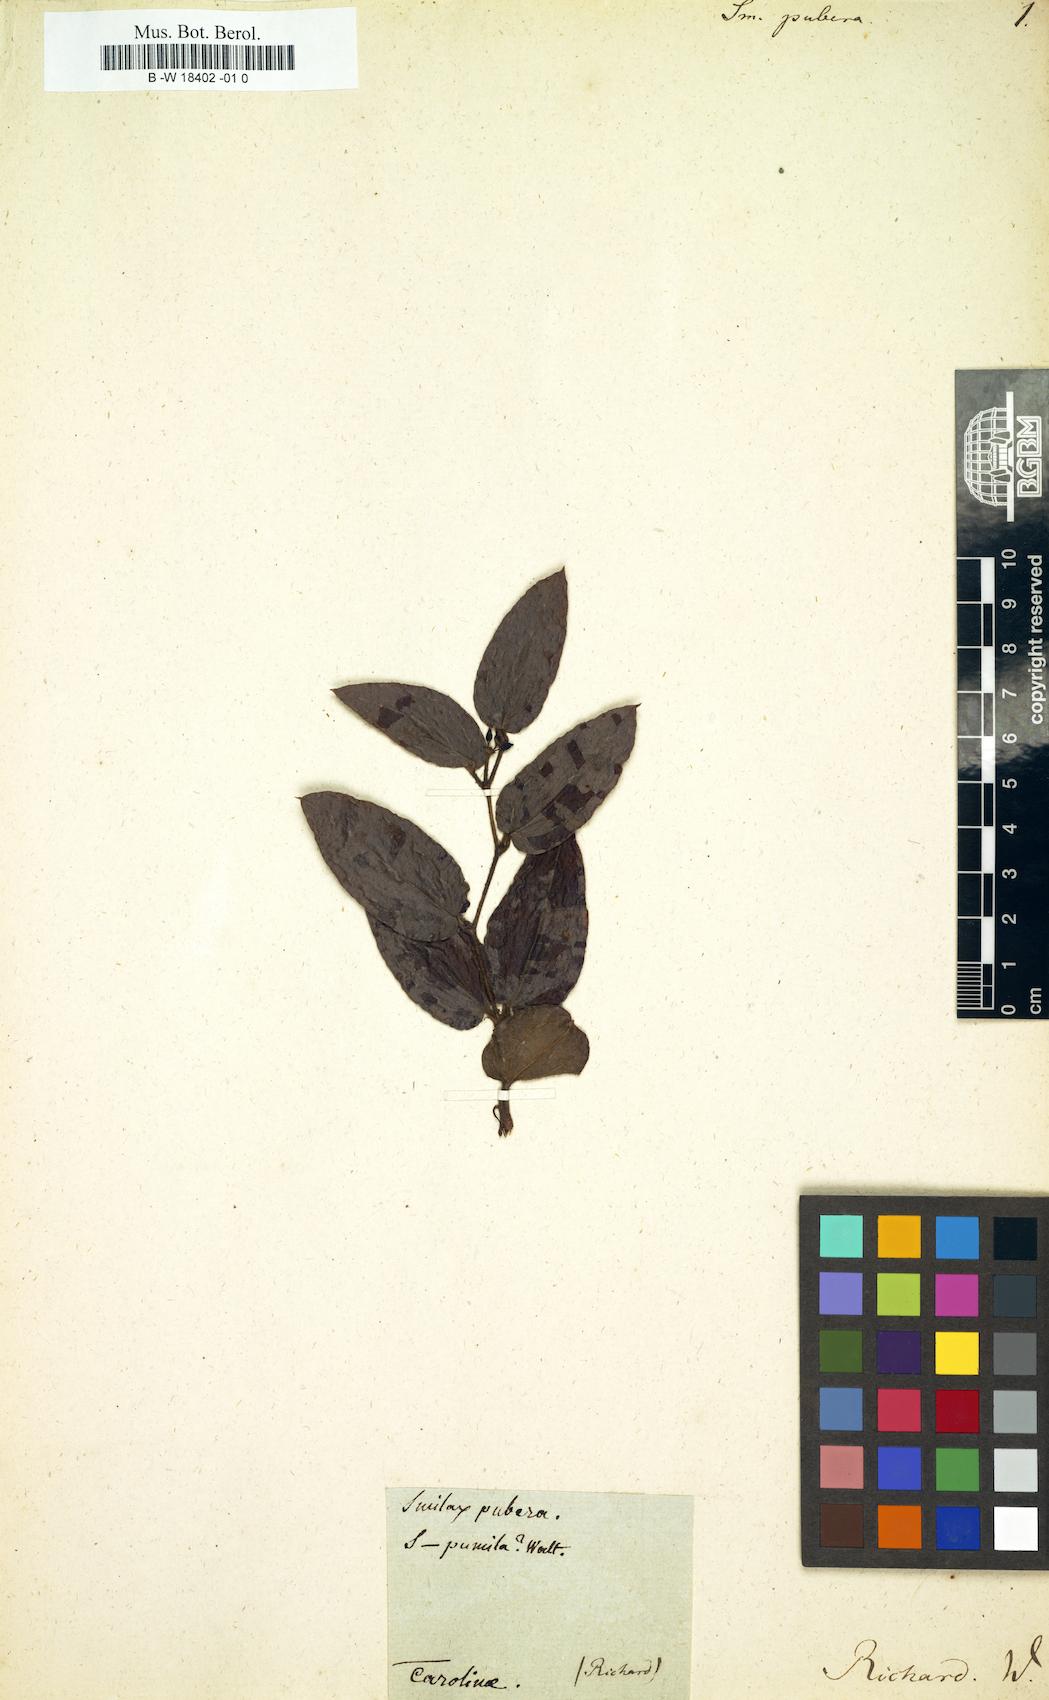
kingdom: Plantae
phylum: Tracheophyta
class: Liliopsida
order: Liliales
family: Smilacaceae
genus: Smilax
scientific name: Smilax pumila
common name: Sarsaparilla-vine
